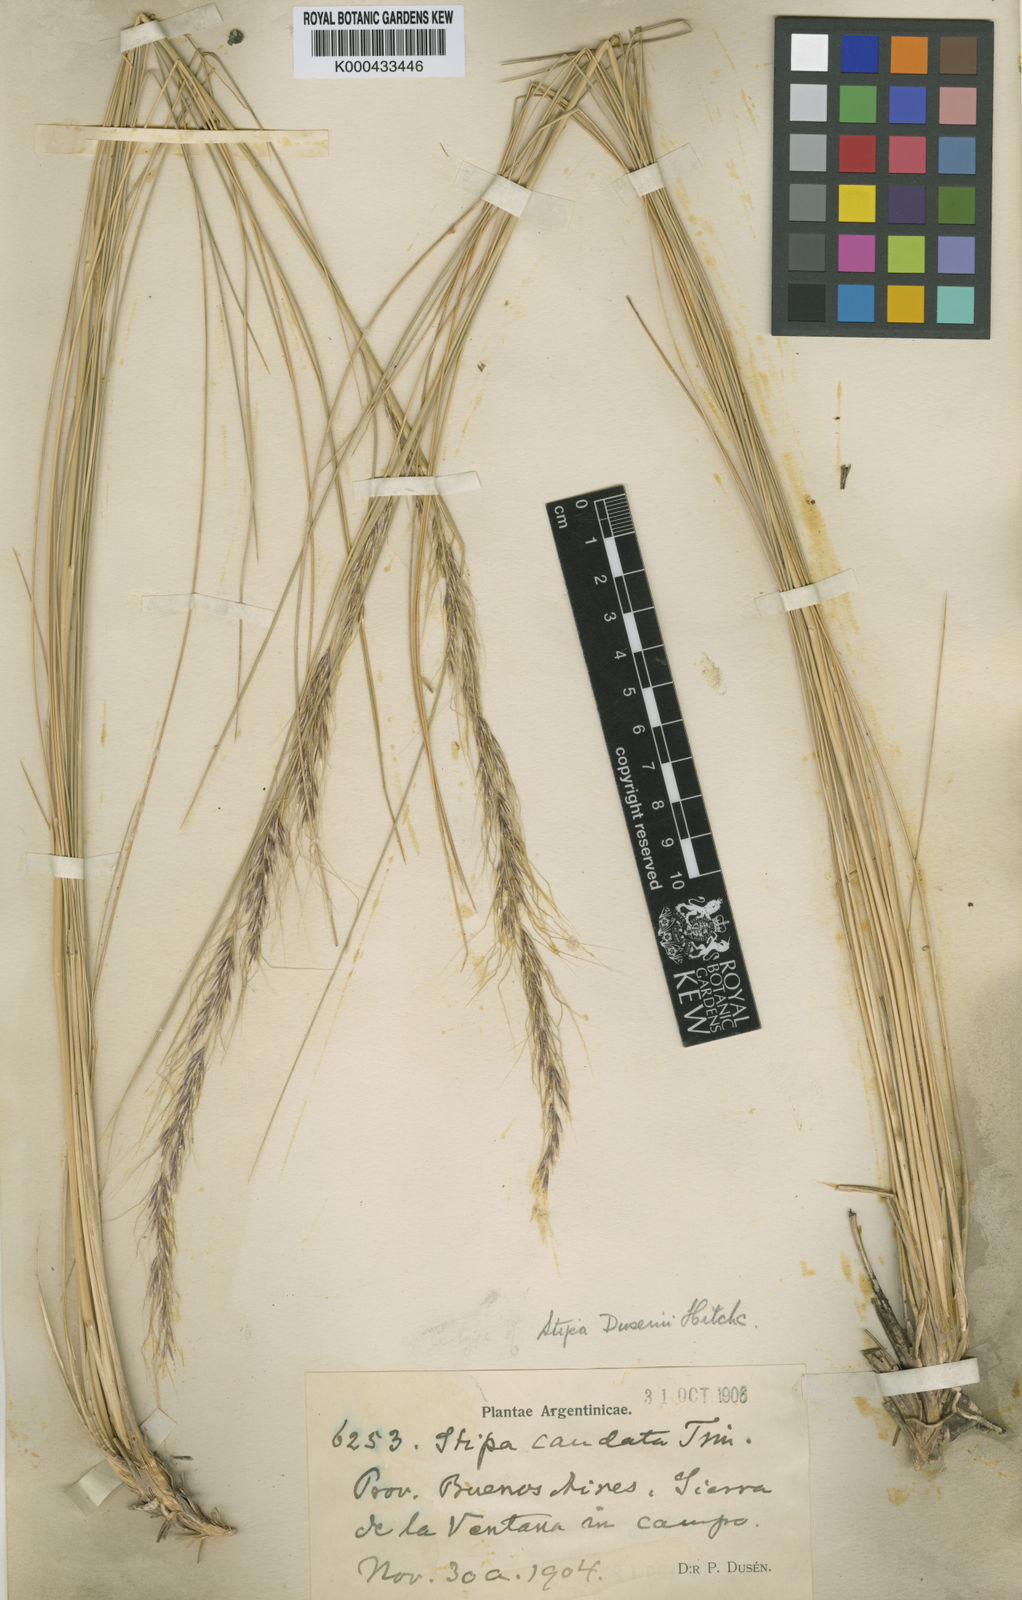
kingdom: Plantae
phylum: Tracheophyta
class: Liliopsida
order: Poales
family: Poaceae
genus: Amelichloa
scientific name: Amelichloa ambigua
